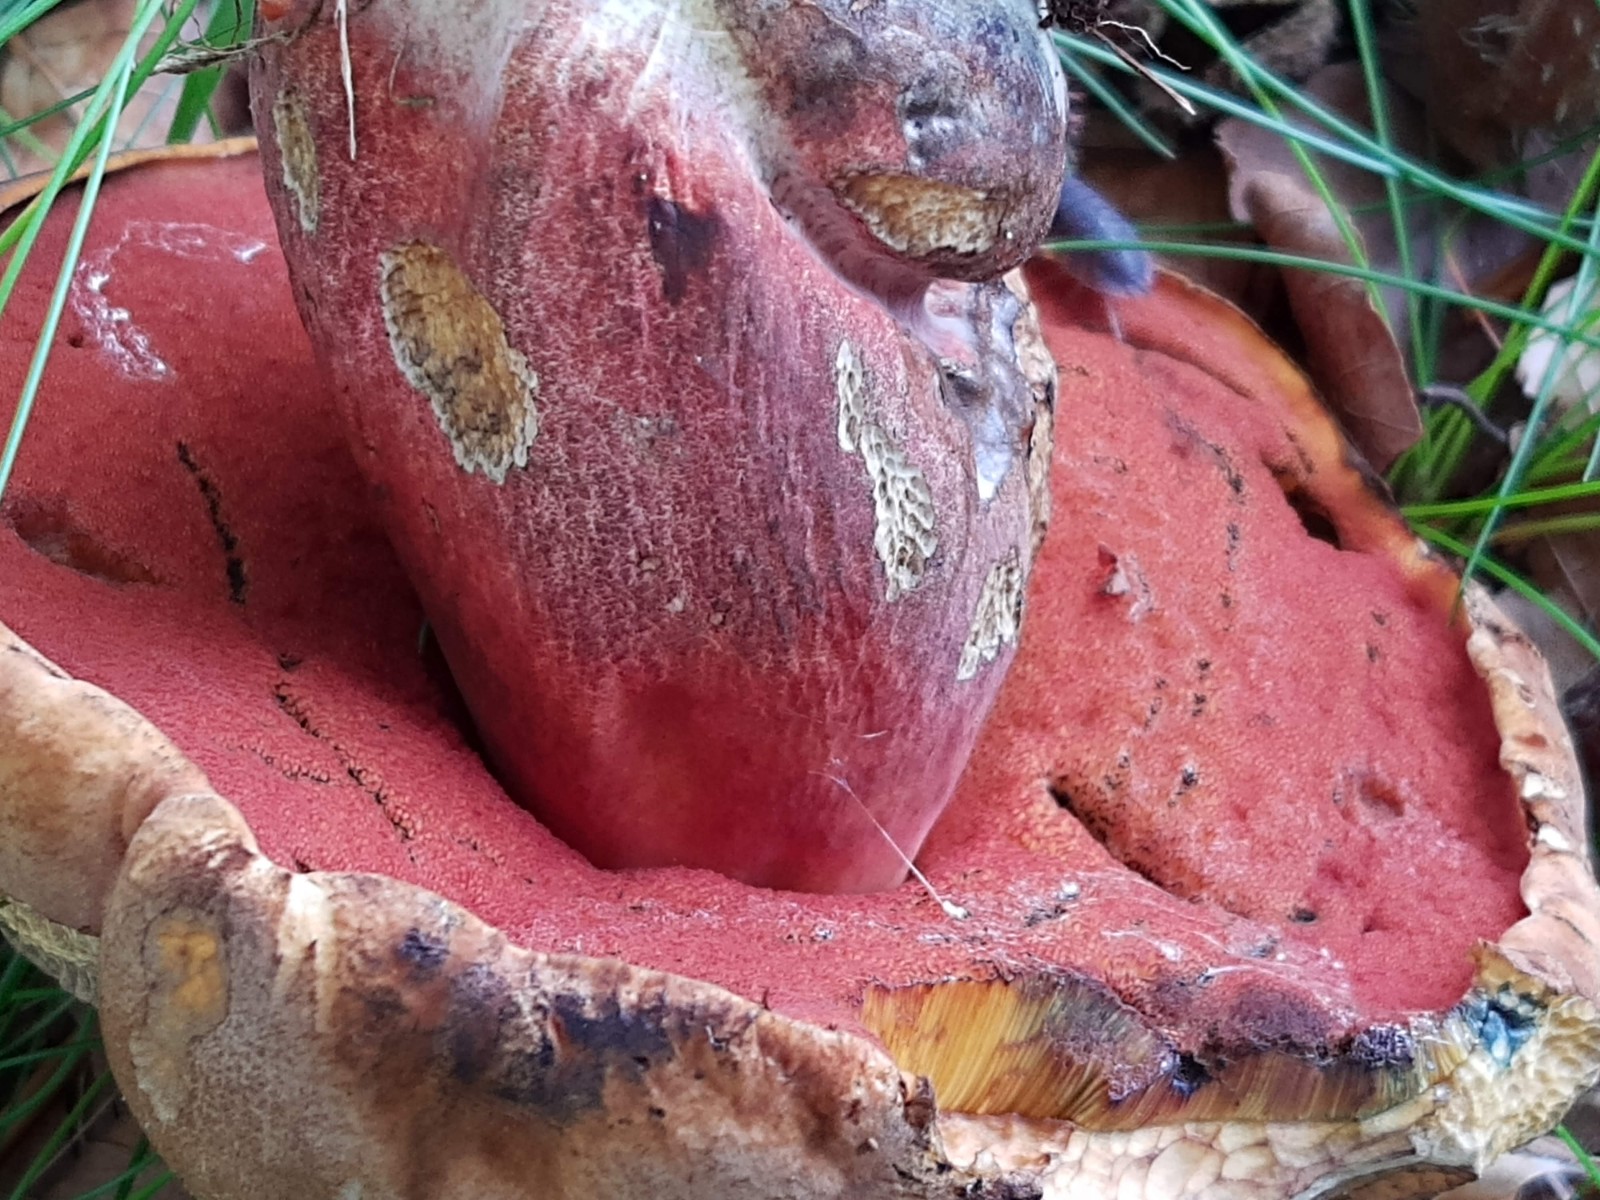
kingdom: Fungi
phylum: Basidiomycota
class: Agaricomycetes
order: Boletales
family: Boletaceae
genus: Neoboletus
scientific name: Neoboletus erythropus
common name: punktstokket indigorørhat
